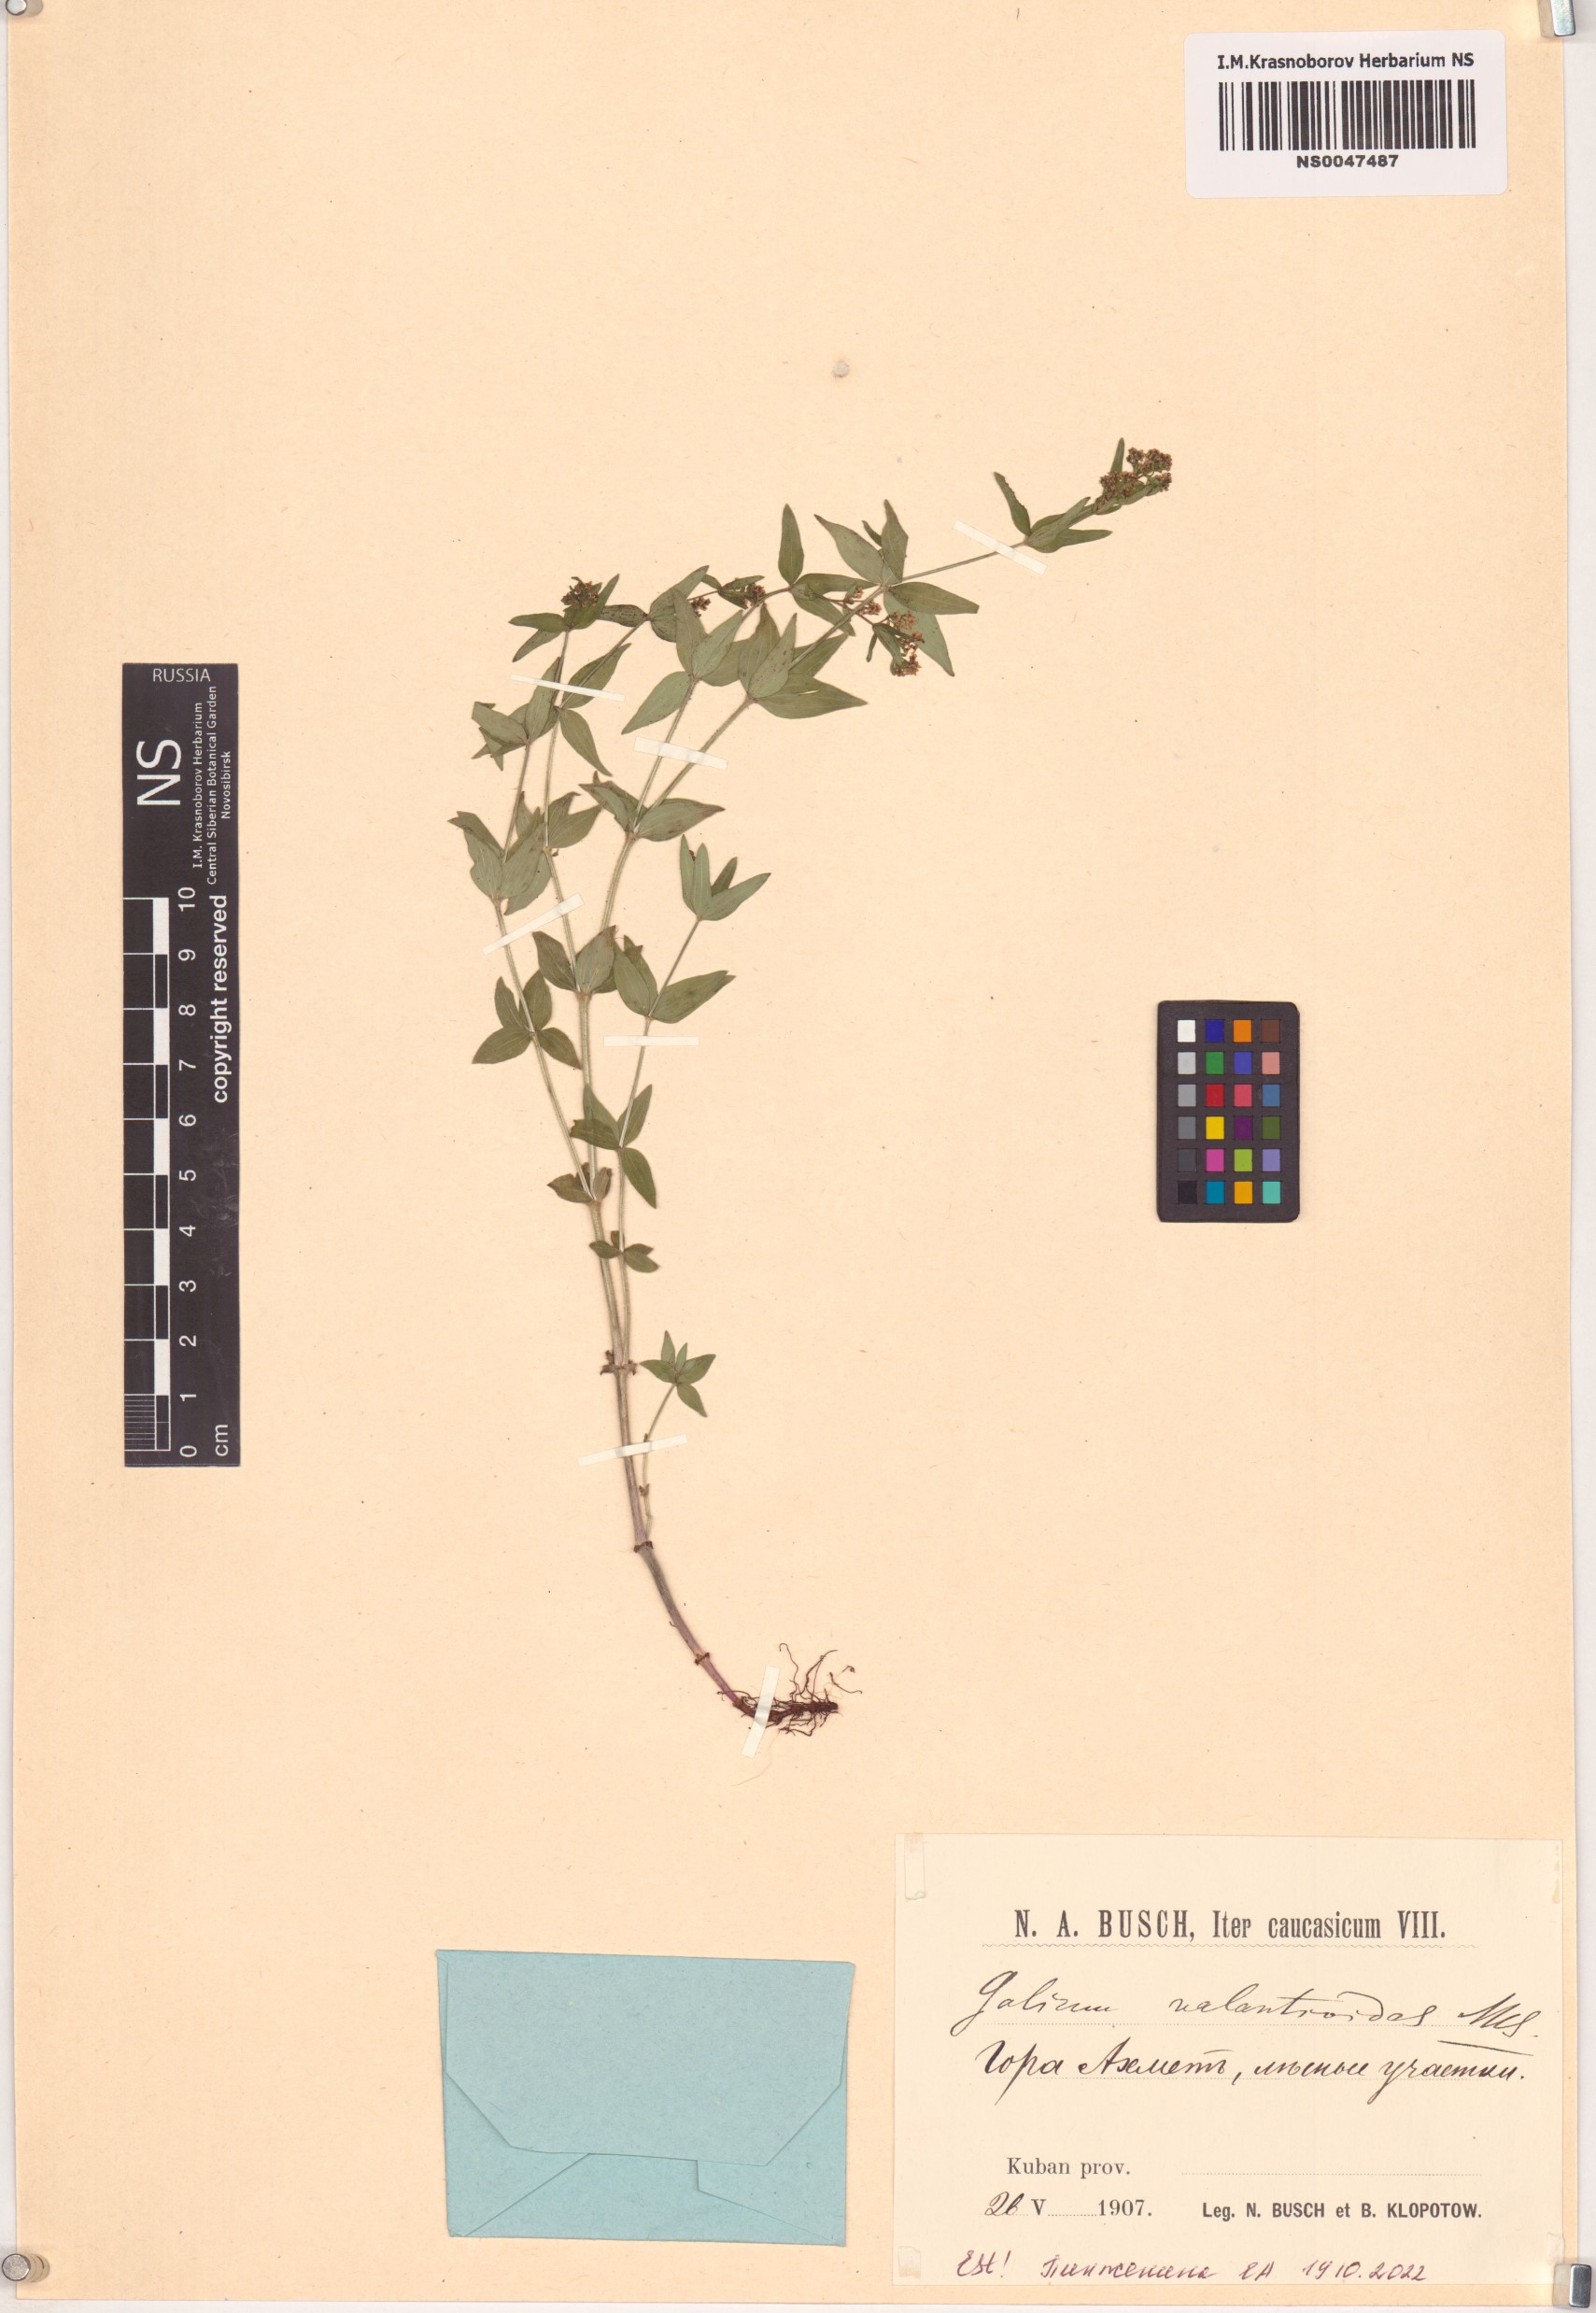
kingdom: Plantae
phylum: Tracheophyta
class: Magnoliopsida
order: Gentianales
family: Rubiaceae
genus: Galium
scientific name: Galium valantioides
